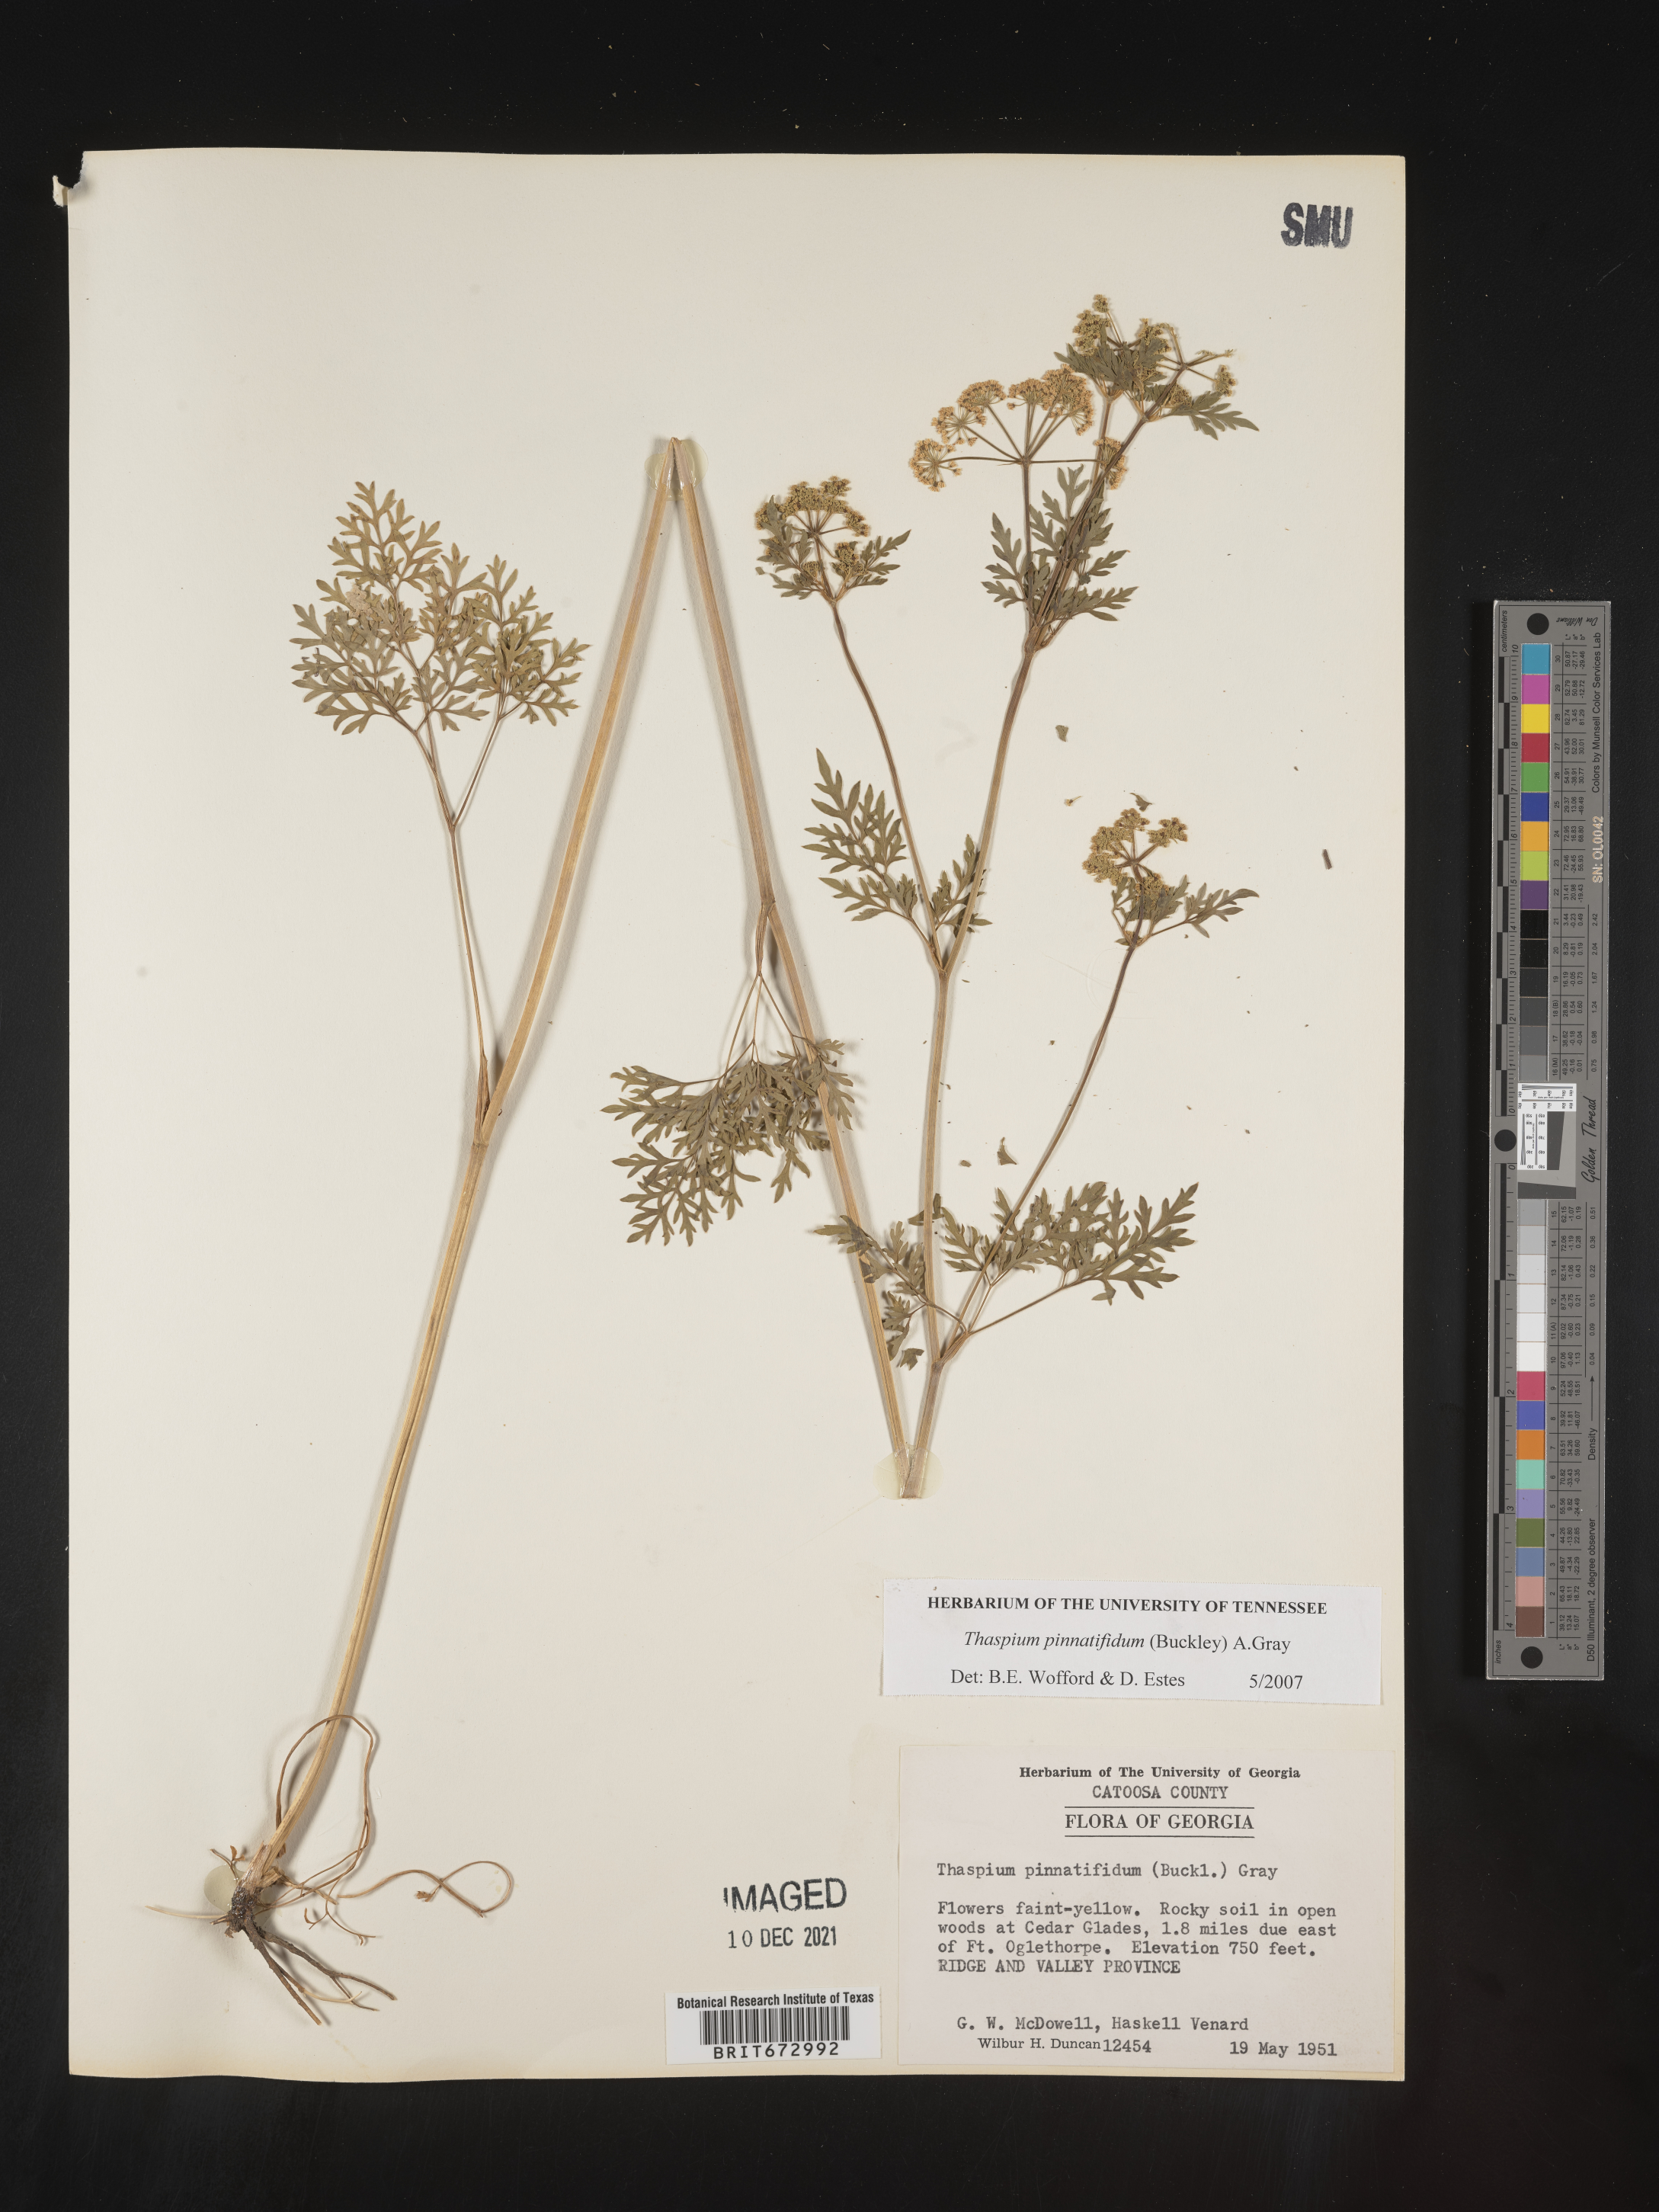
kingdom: Plantae
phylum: Tracheophyta
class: Magnoliopsida
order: Apiales
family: Apiaceae
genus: Thaspium
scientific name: Thaspium
